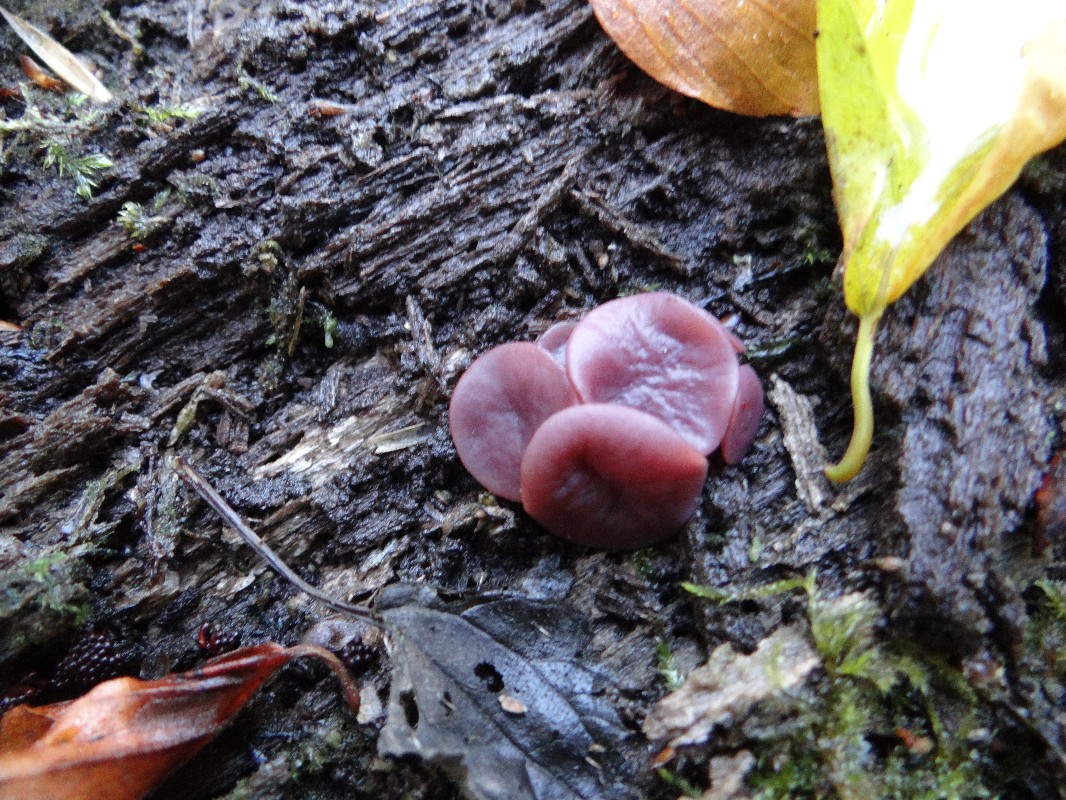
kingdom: Fungi
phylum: Ascomycota
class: Leotiomycetes
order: Helotiales
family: Gelatinodiscaceae
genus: Ascocoryne
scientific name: Ascocoryne cylichnium
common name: stor sejskive
